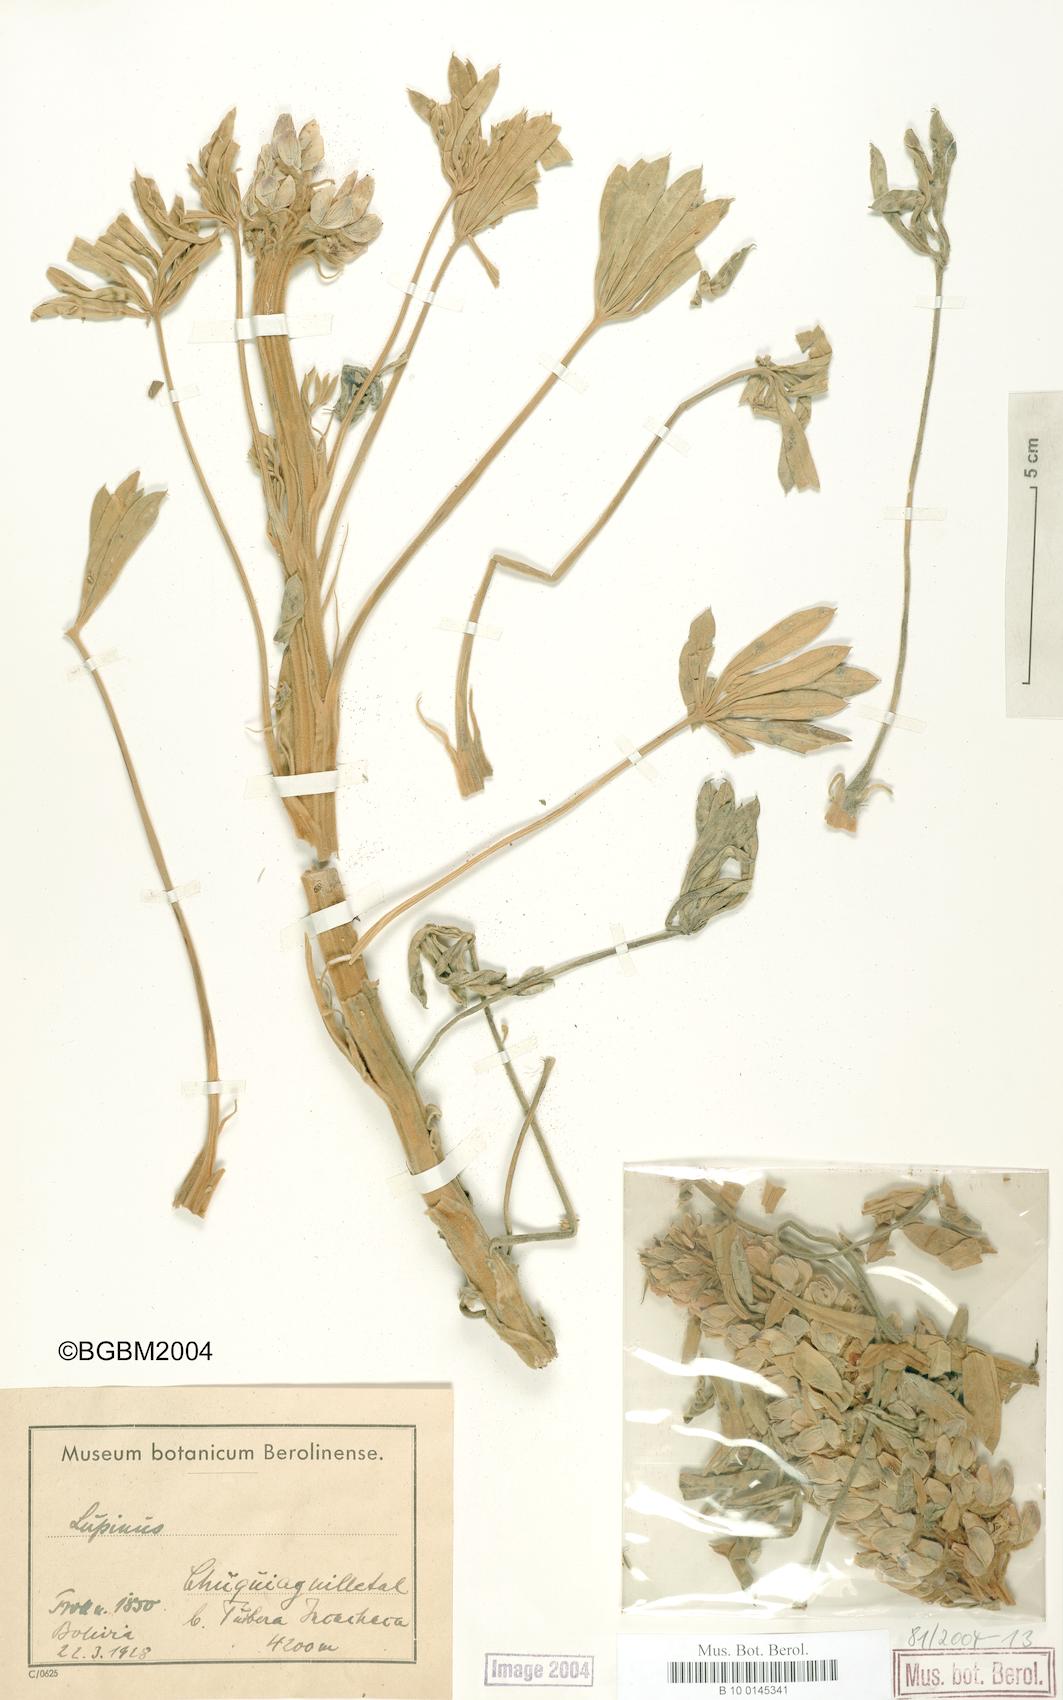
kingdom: Plantae
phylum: Tracheophyta
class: Magnoliopsida
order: Fabales
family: Fabaceae
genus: Lupinus
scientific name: Lupinus
